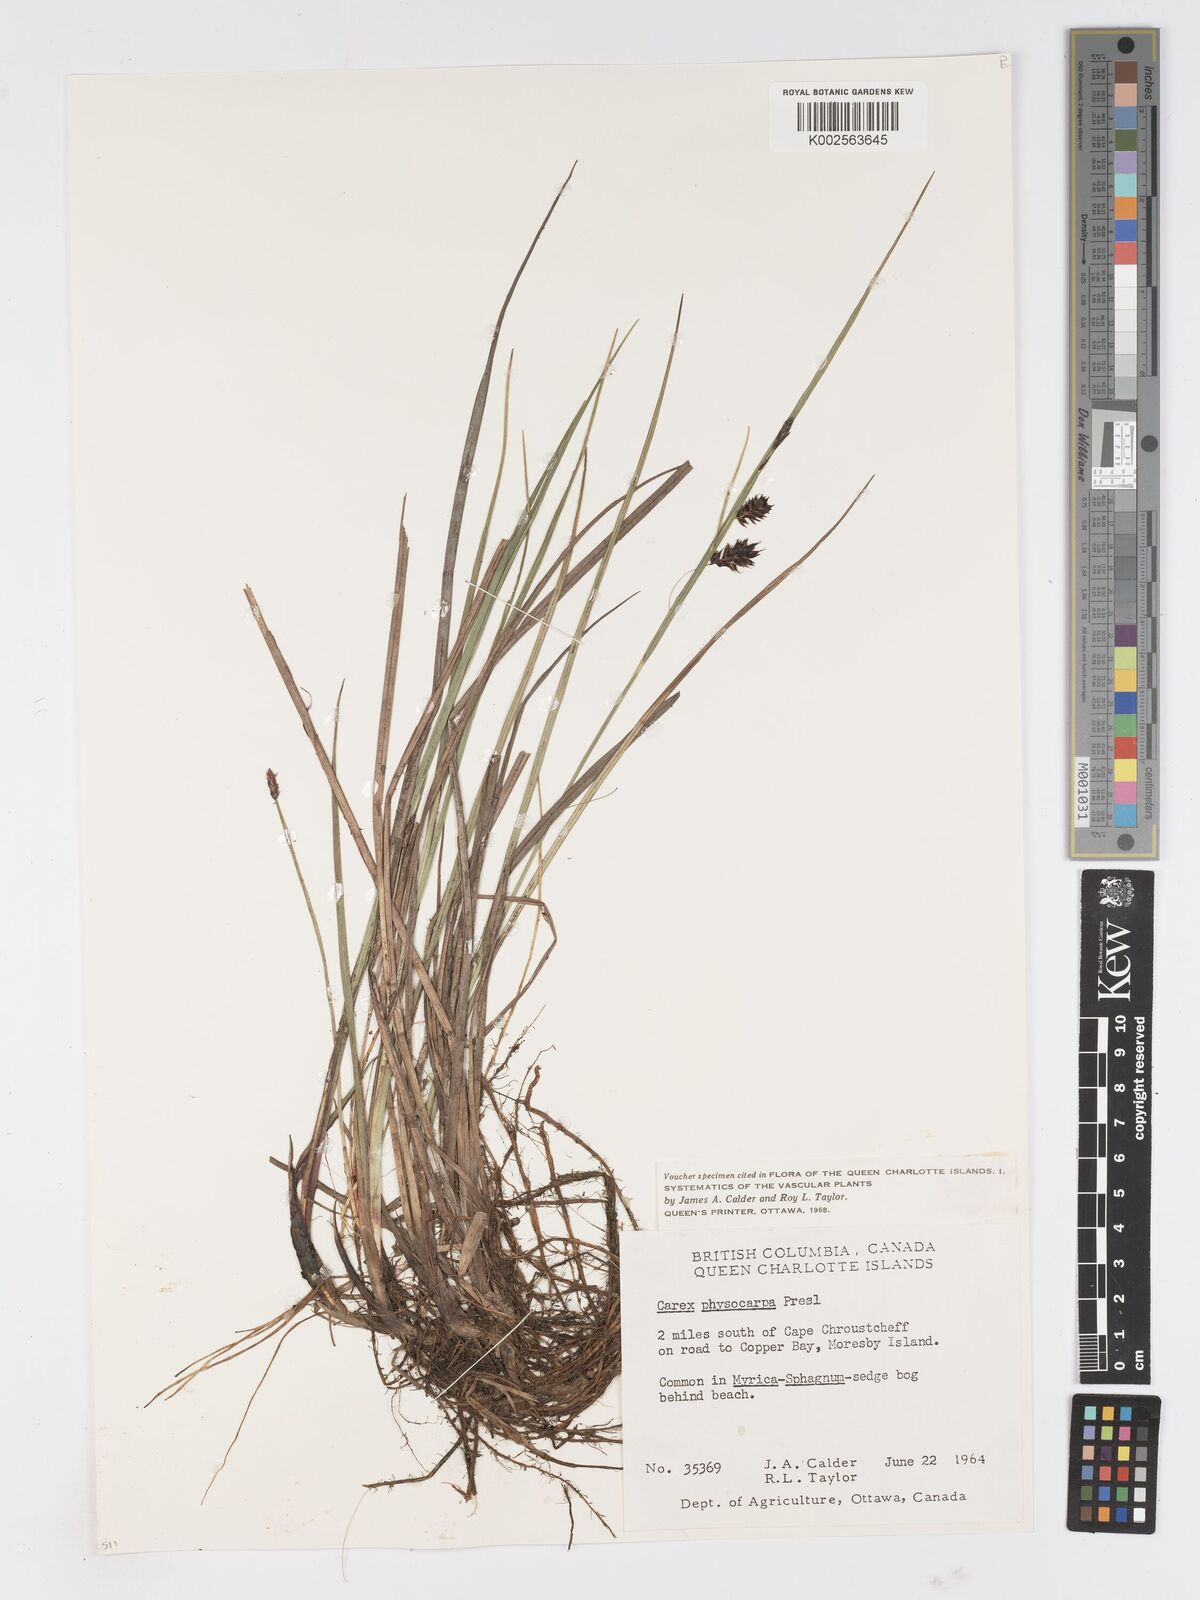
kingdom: Plantae
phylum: Tracheophyta
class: Liliopsida
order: Poales
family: Cyperaceae
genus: Carex
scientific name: Carex saxatilis
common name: Russet sedge
